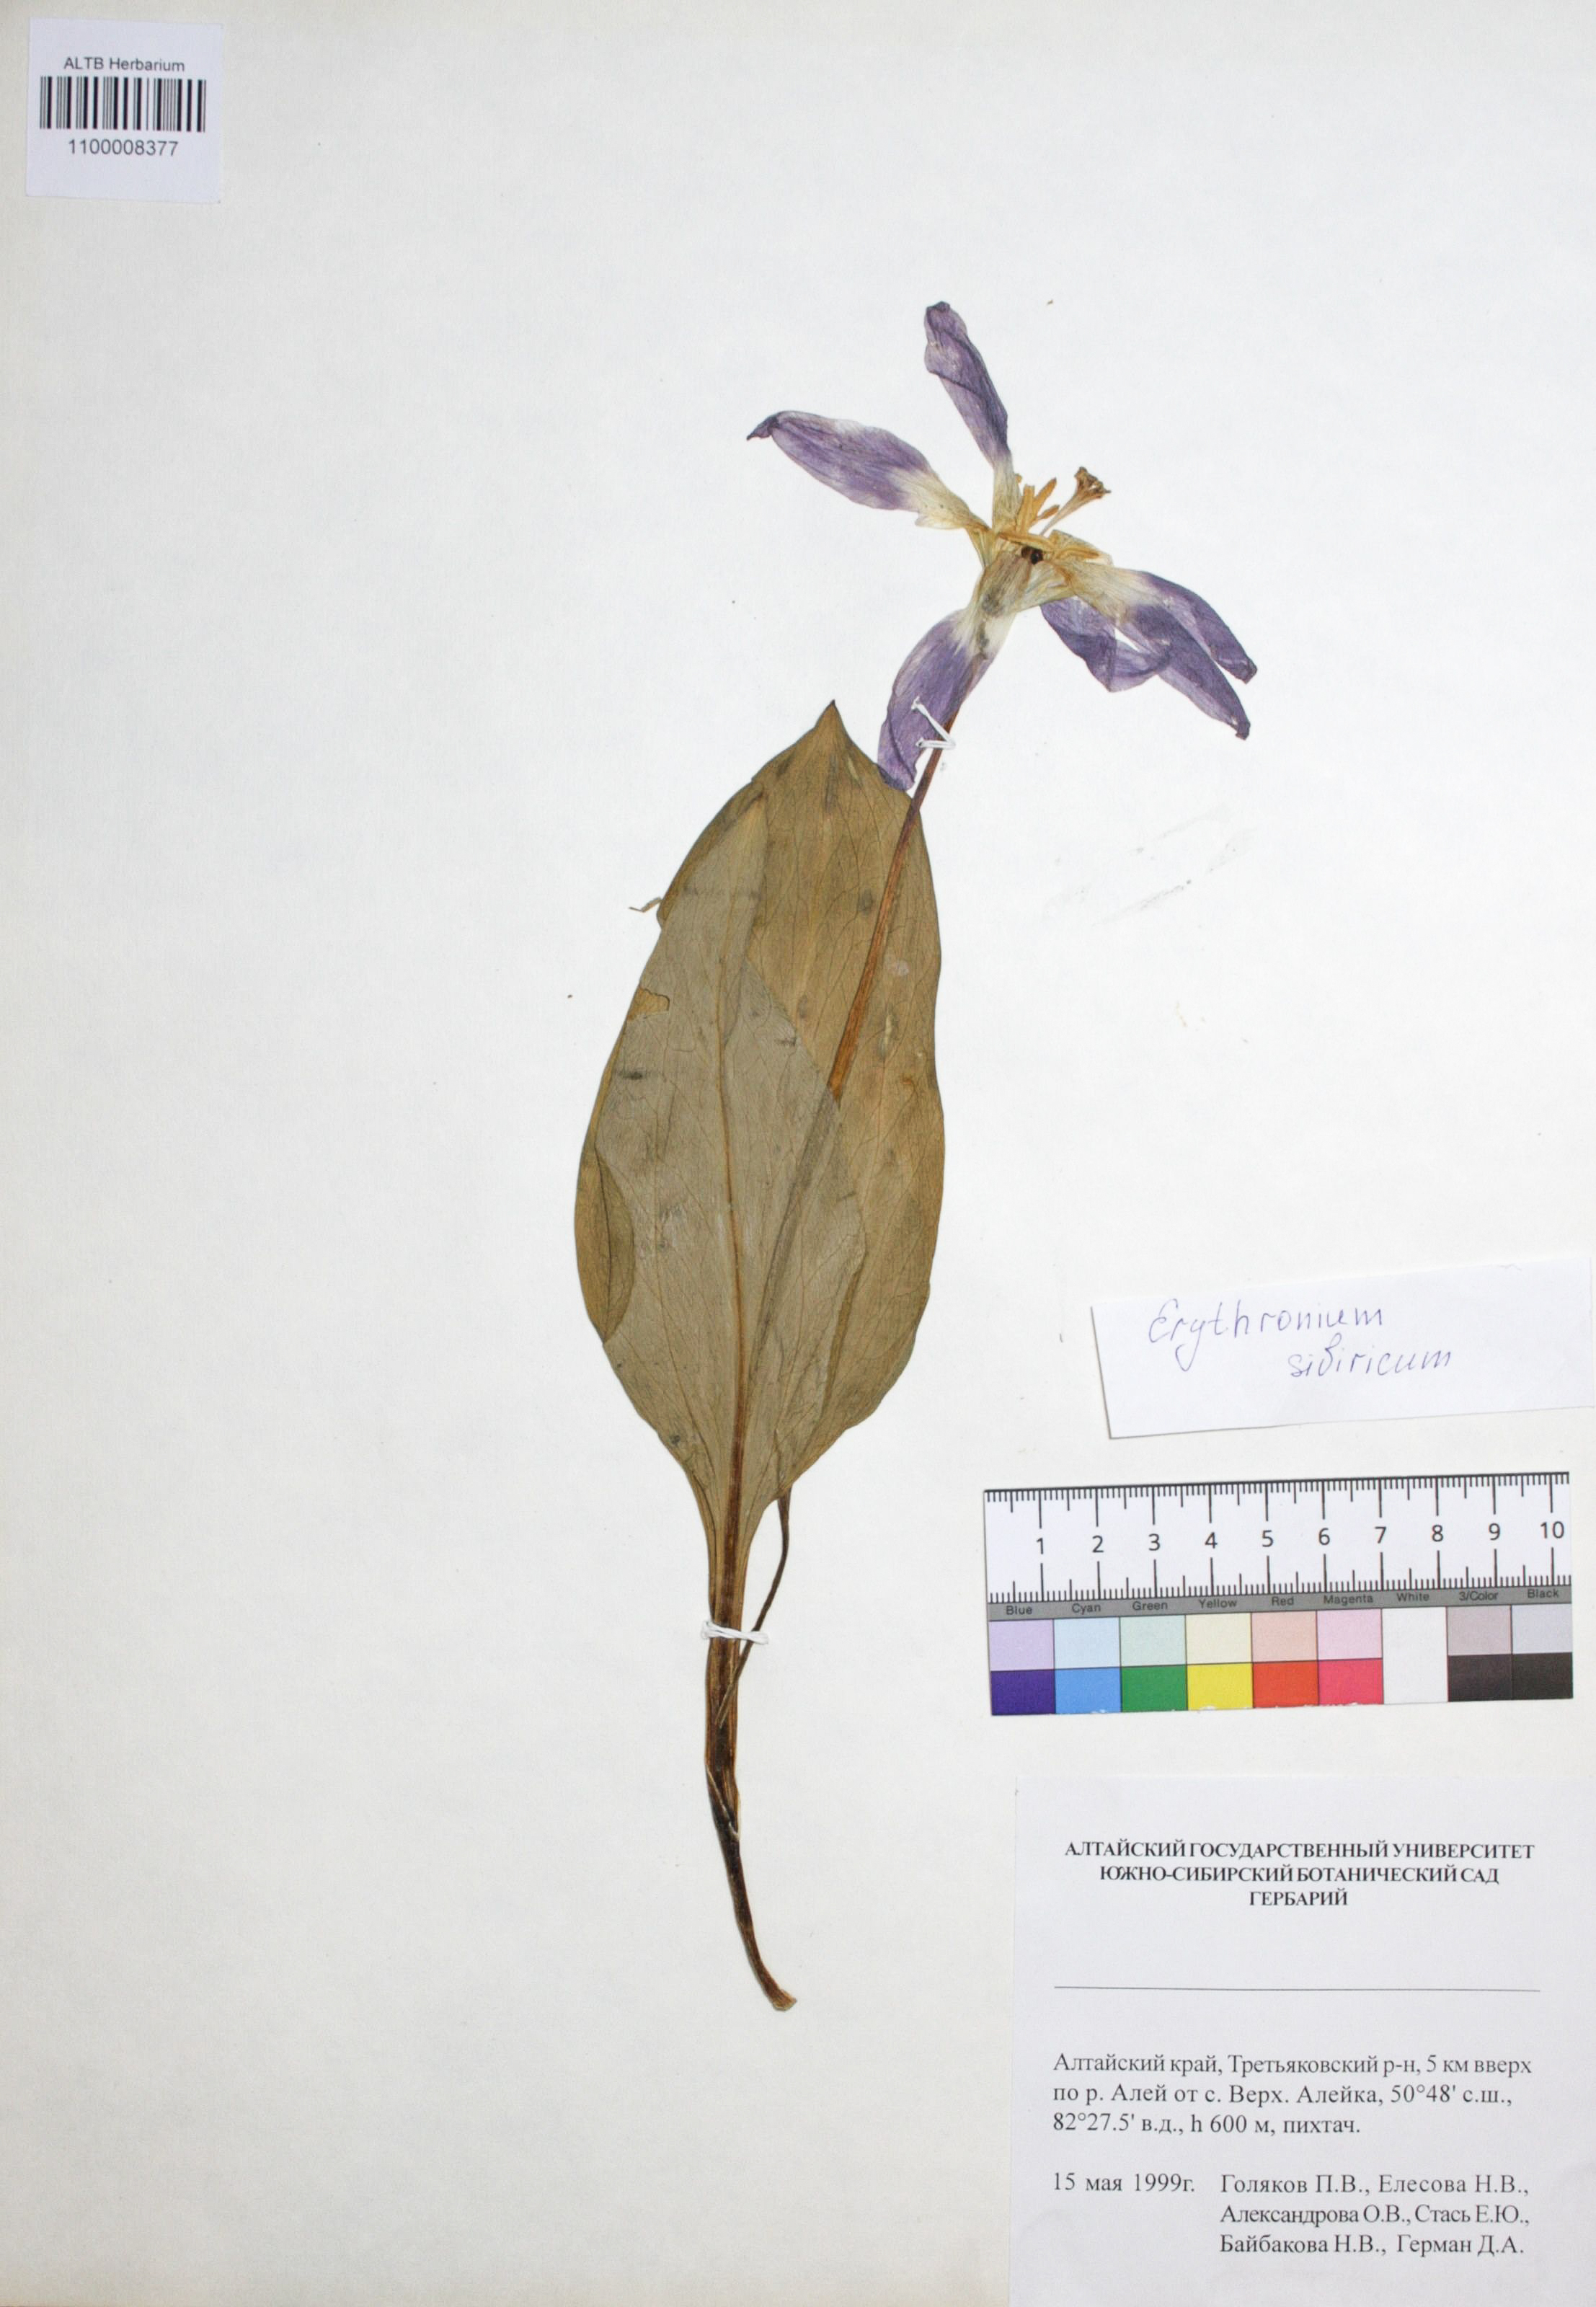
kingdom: Plantae
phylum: Tracheophyta
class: Liliopsida
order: Liliales
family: Liliaceae
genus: Erythronium
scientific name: Erythronium sibiricum
